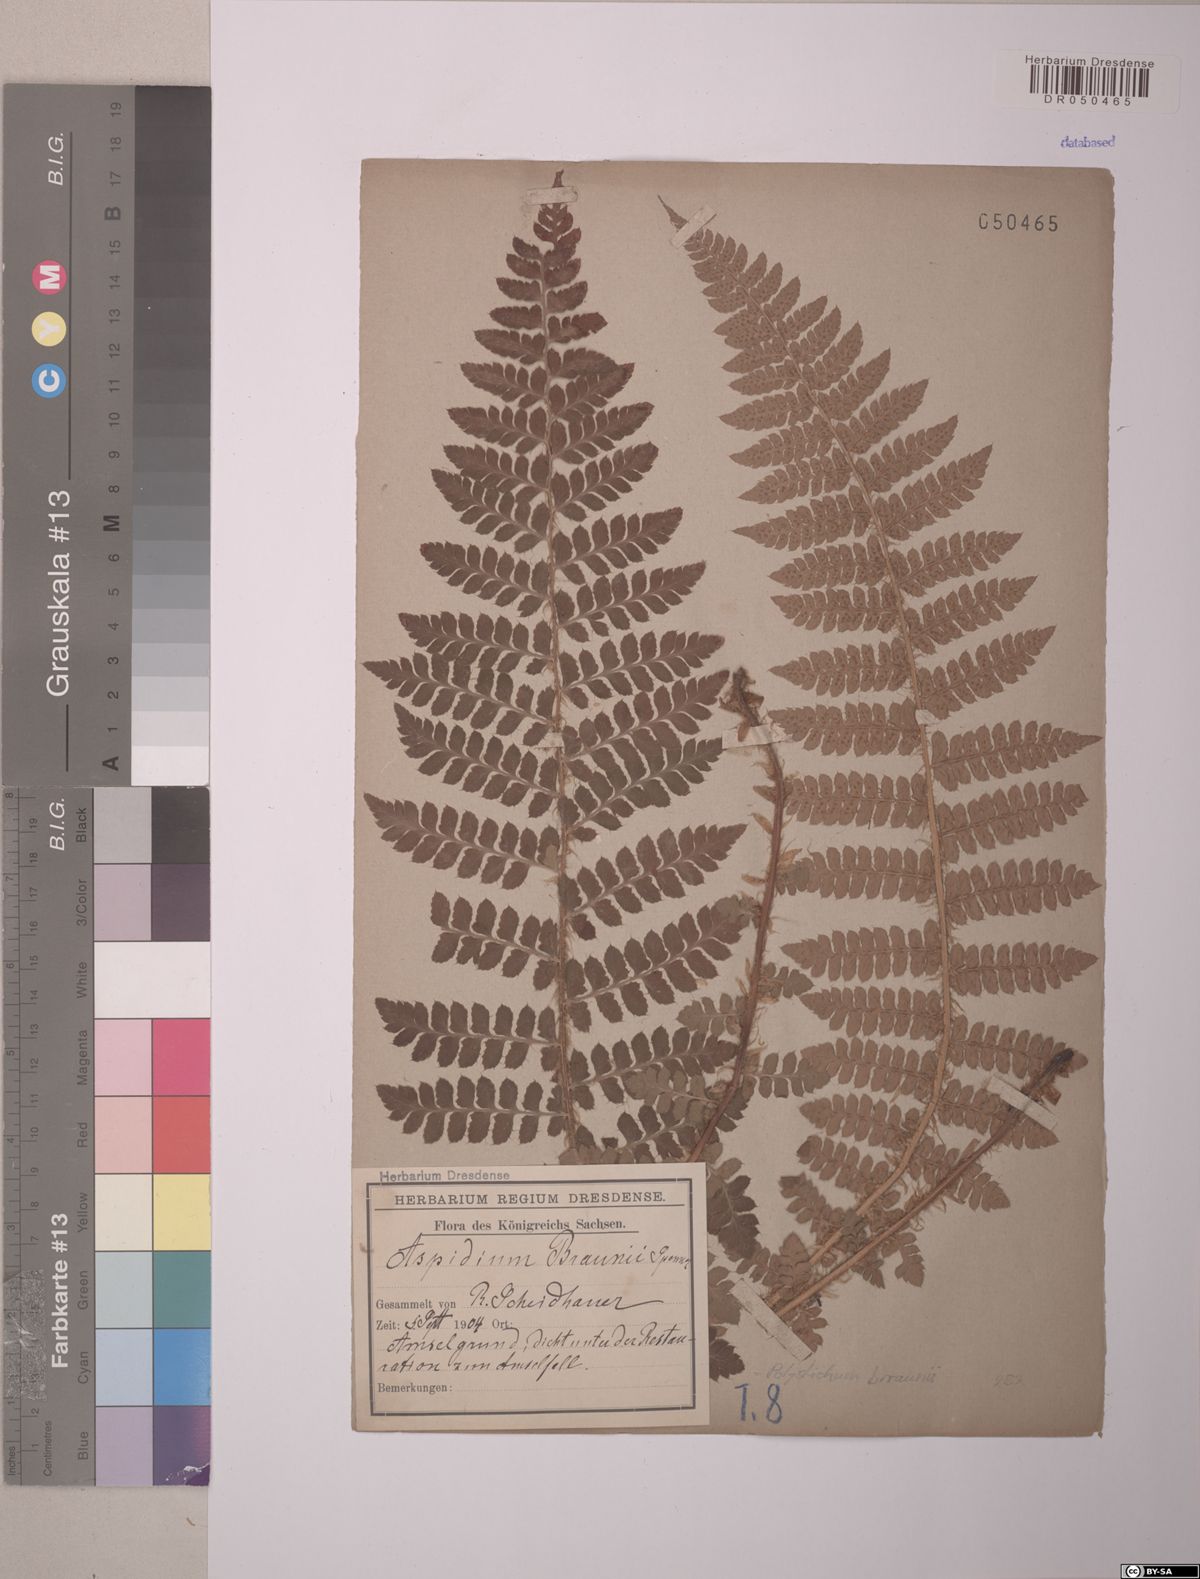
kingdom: Plantae
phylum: Tracheophyta
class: Polypodiopsida
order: Polypodiales
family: Dryopteridaceae
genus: Polystichum
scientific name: Polystichum braunii
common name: Braun's holly fern
